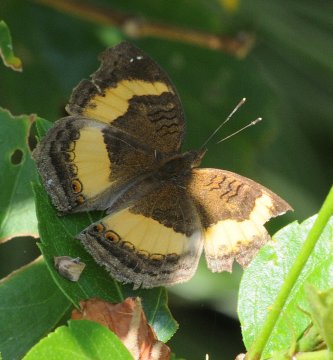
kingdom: Animalia
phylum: Arthropoda
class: Insecta
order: Lepidoptera
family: Nymphalidae
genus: Junonia
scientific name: Junonia terea
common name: Soldier Pansy
